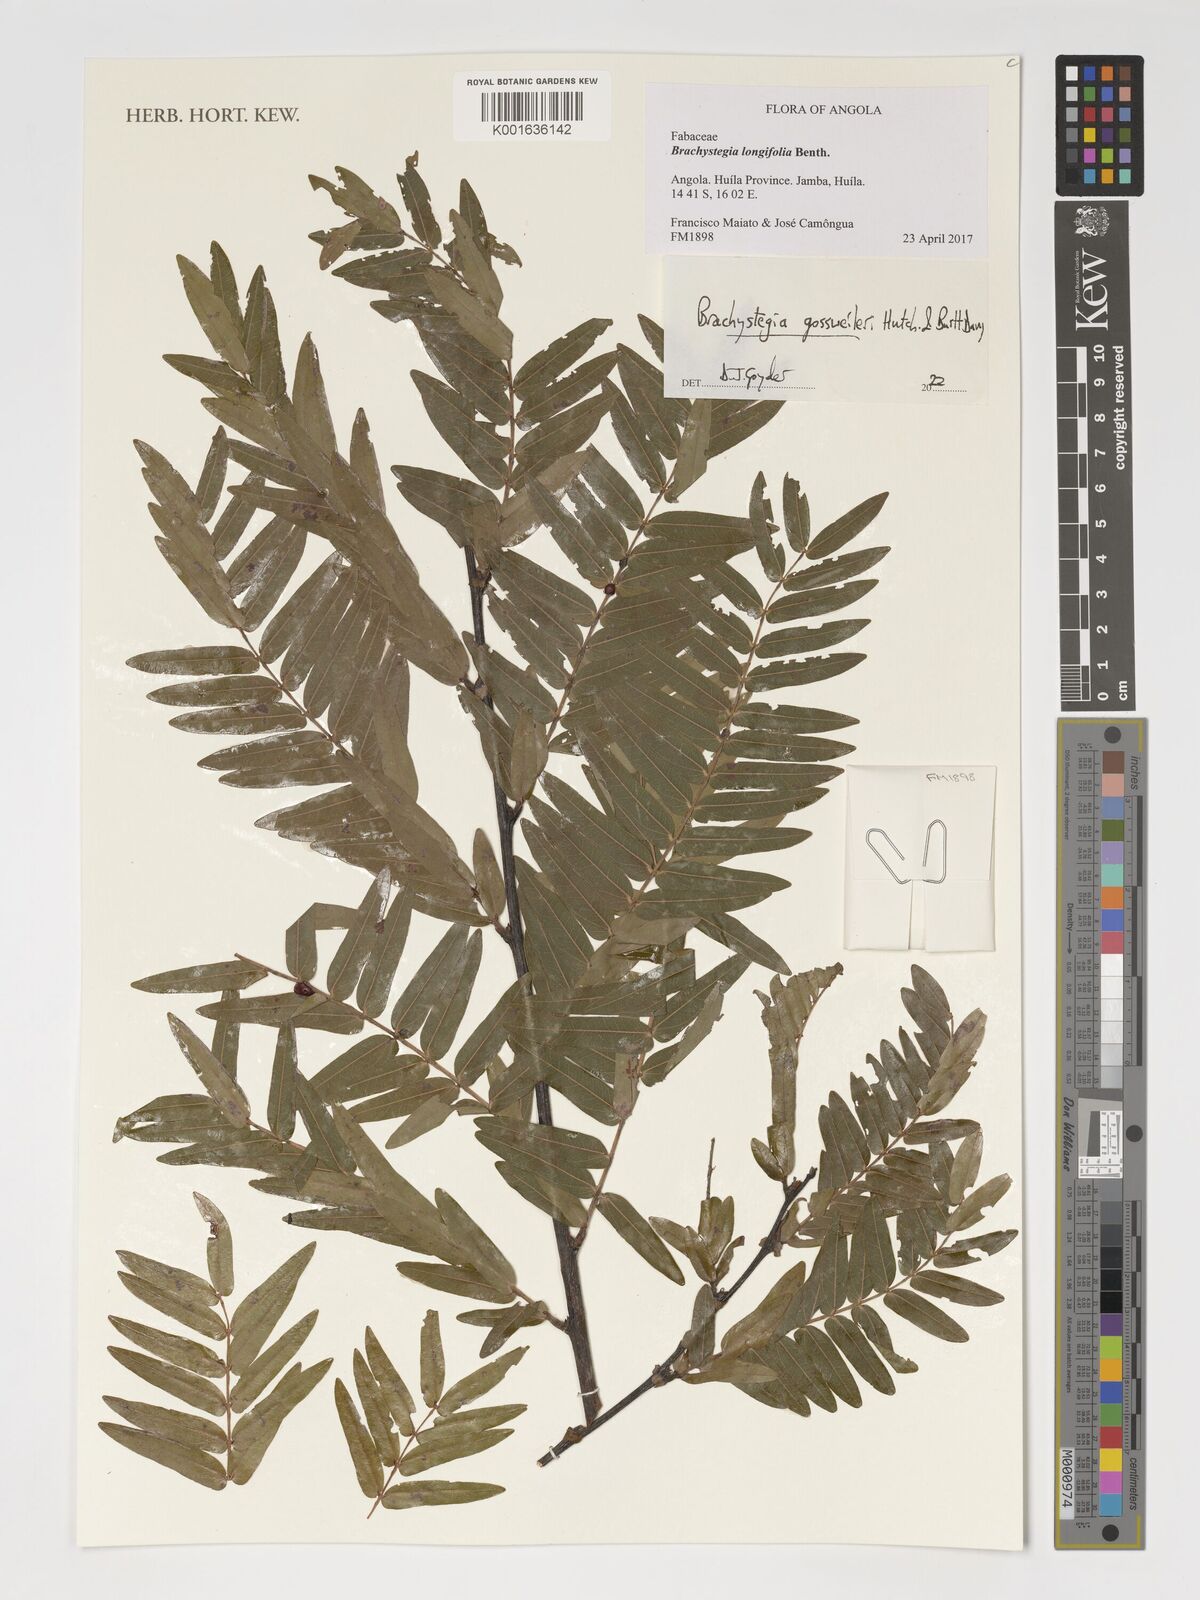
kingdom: Plantae
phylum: Tracheophyta
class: Magnoliopsida
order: Fabales
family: Fabaceae
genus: Brachystegia
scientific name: Brachystegia gossweileri
